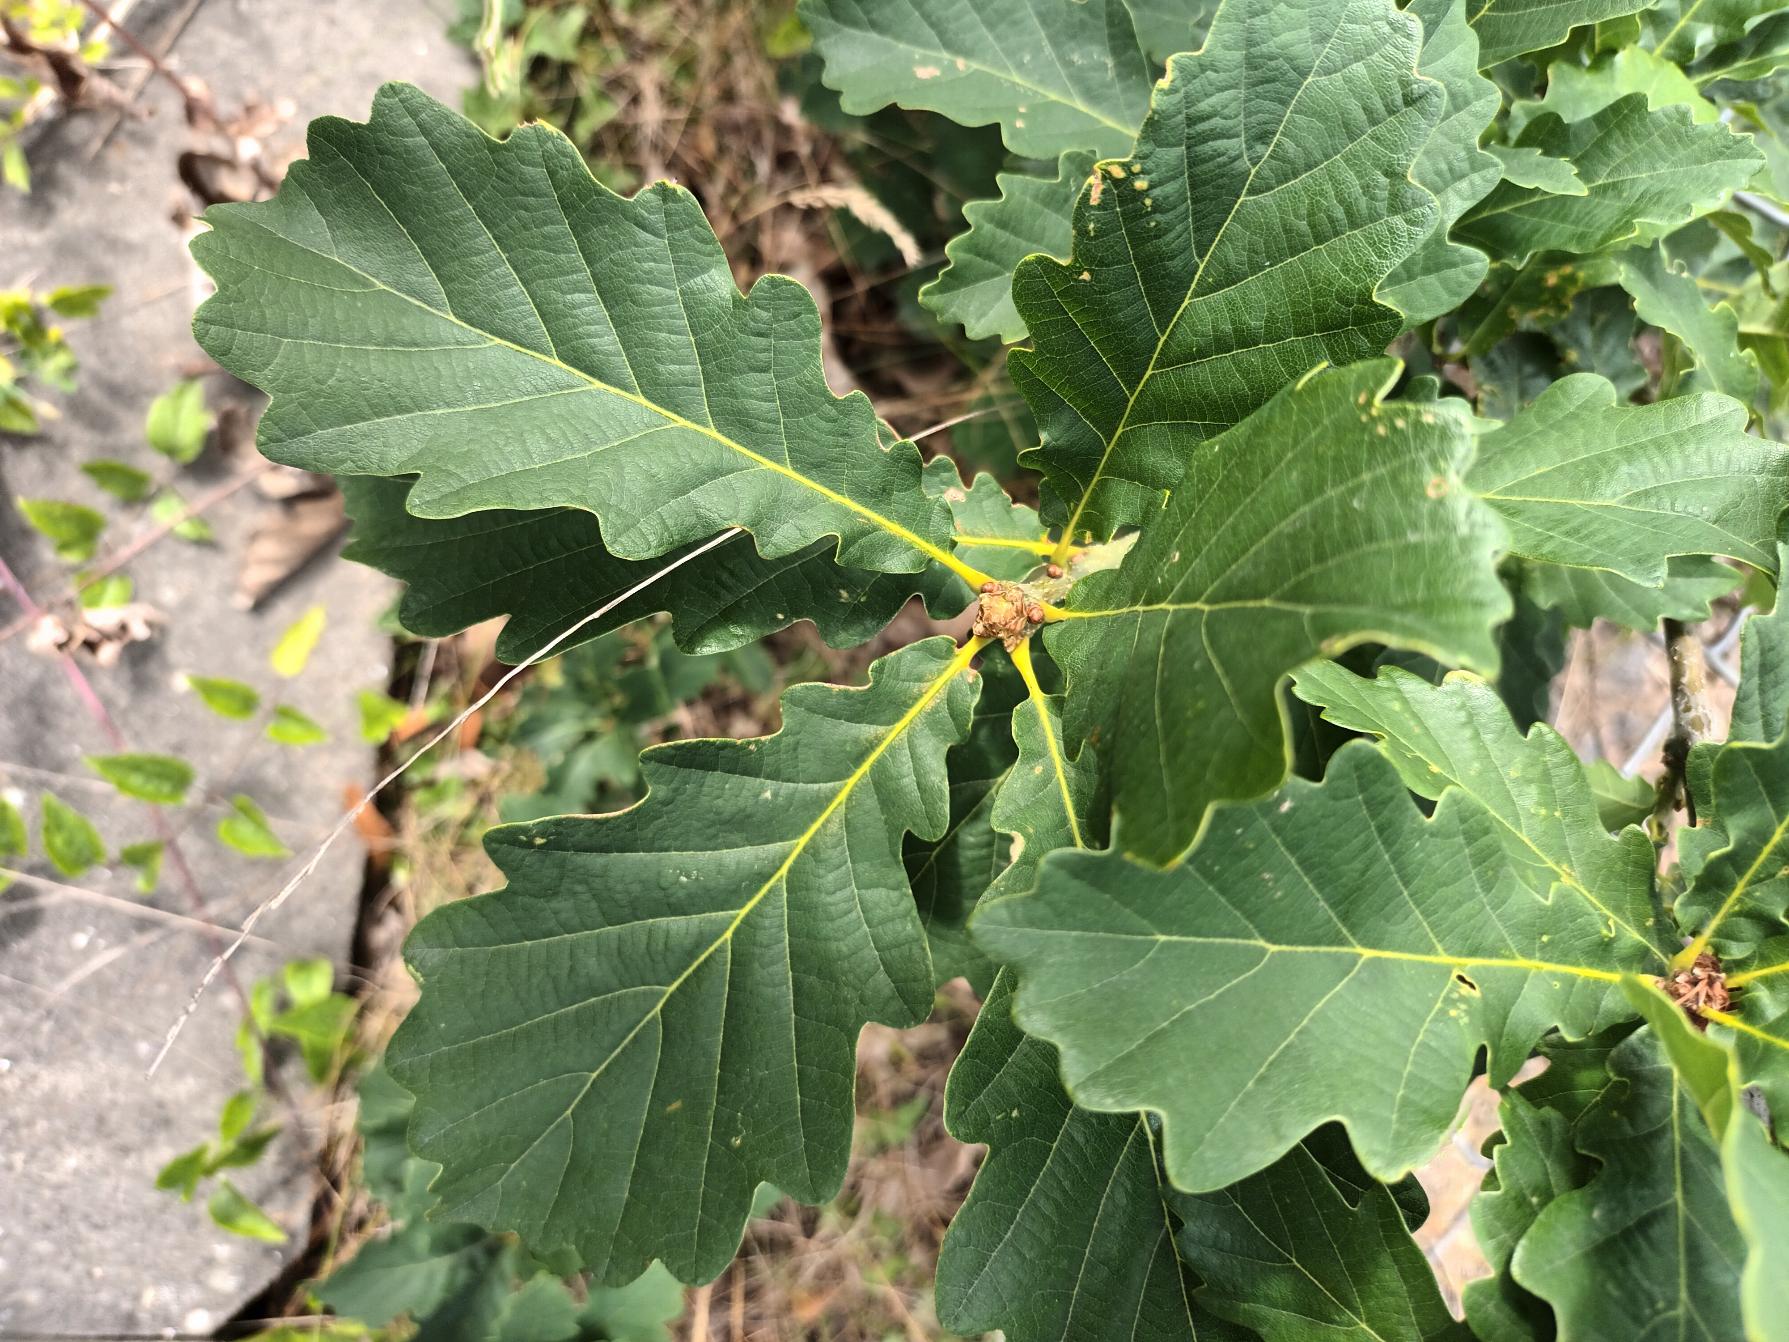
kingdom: Plantae
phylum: Tracheophyta
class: Magnoliopsida
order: Fagales
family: Fagaceae
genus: Quercus
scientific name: Quercus petraea
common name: Vinter-eg
